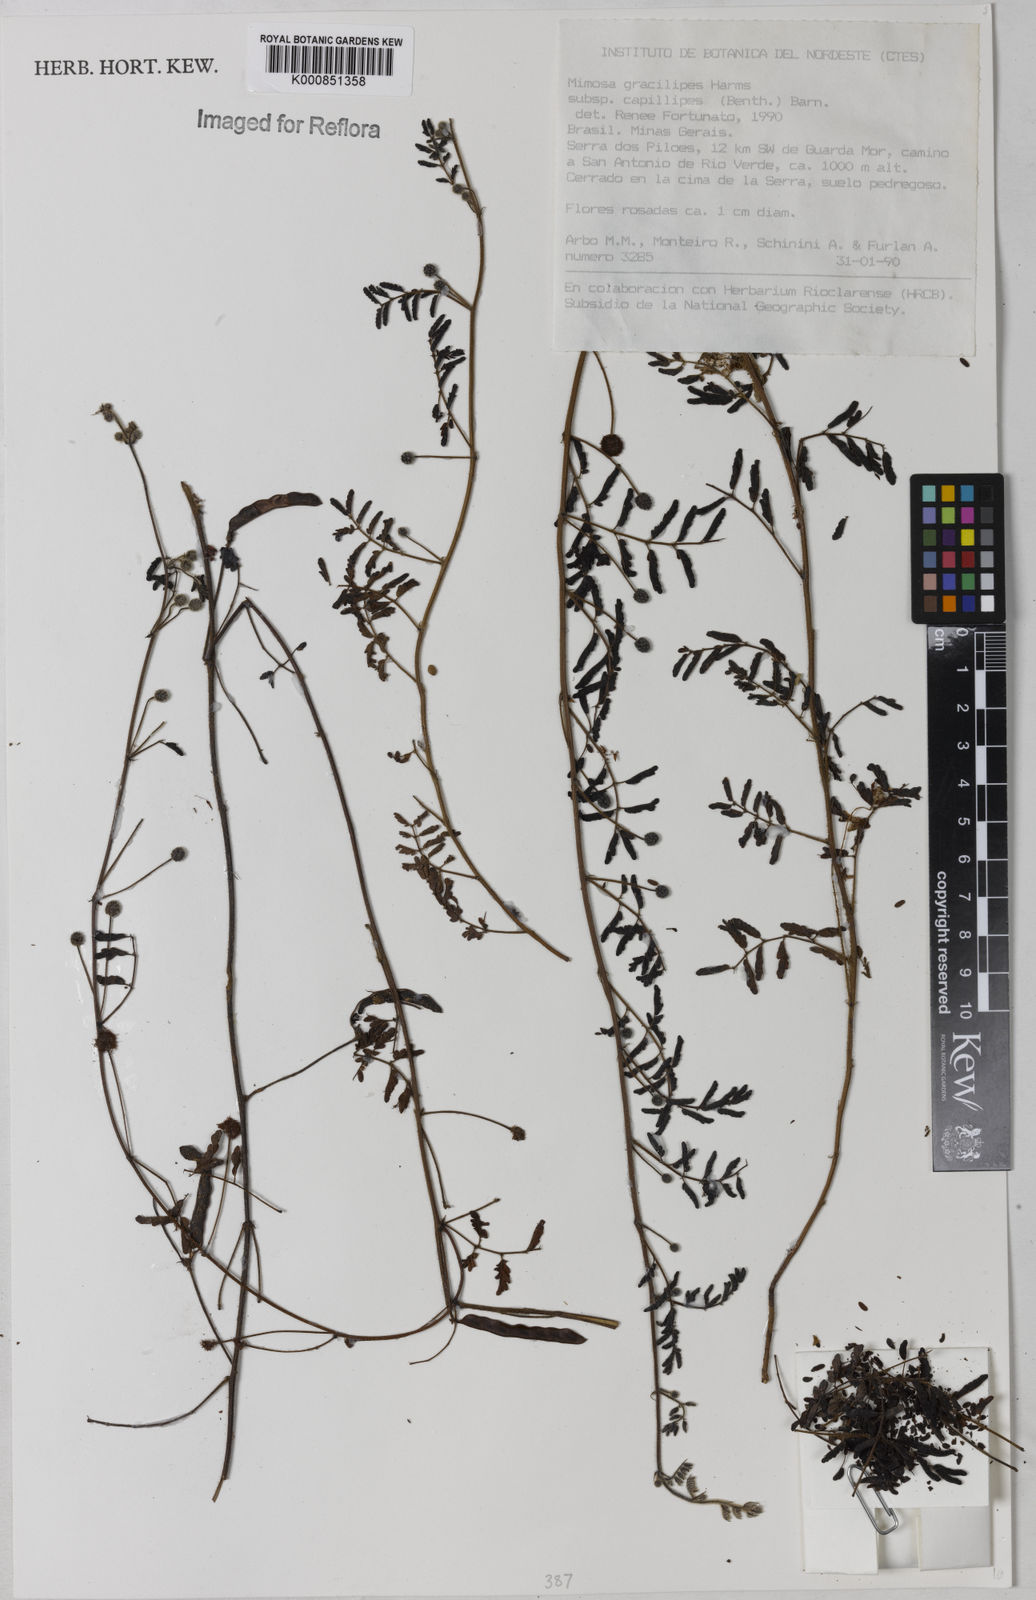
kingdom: Plantae
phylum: Tracheophyta
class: Magnoliopsida
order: Fabales
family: Fabaceae
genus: Mimosa
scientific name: Mimosa gracilis
